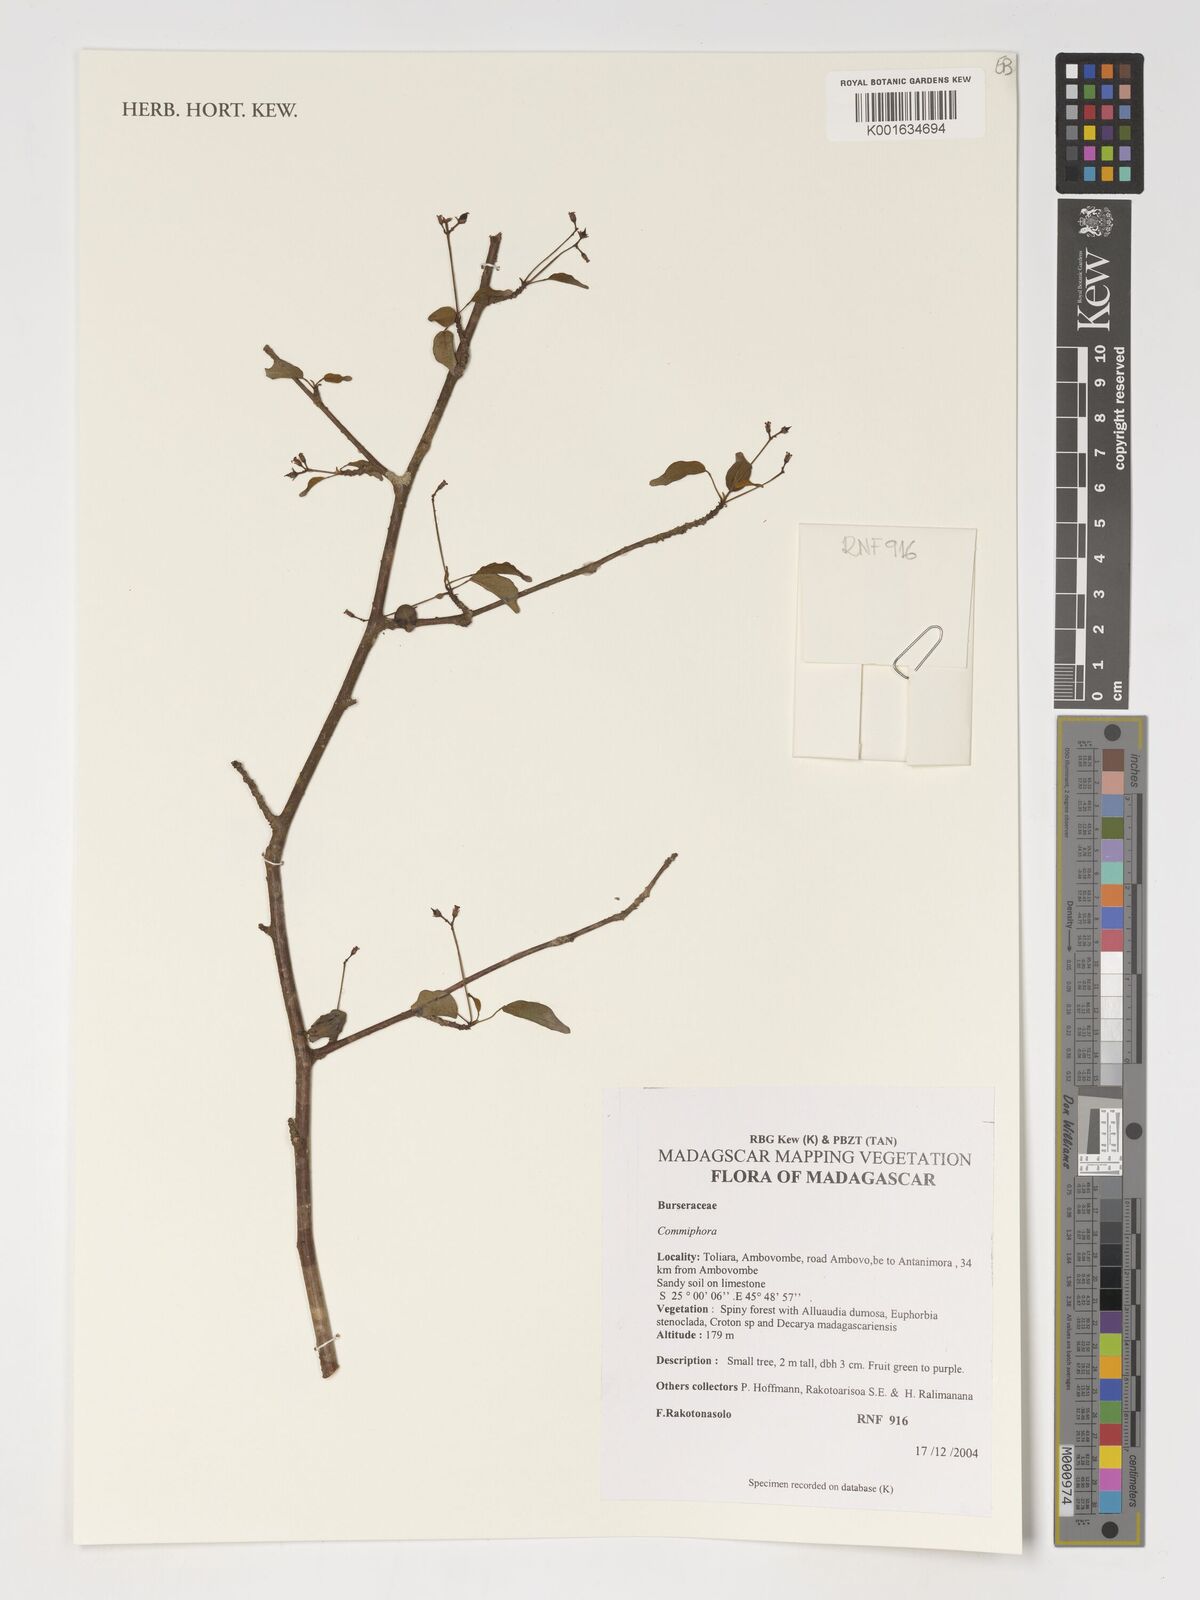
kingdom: Plantae
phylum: Tracheophyta
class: Magnoliopsida
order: Sapindales
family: Burseraceae
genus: Commiphora
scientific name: Commiphora
